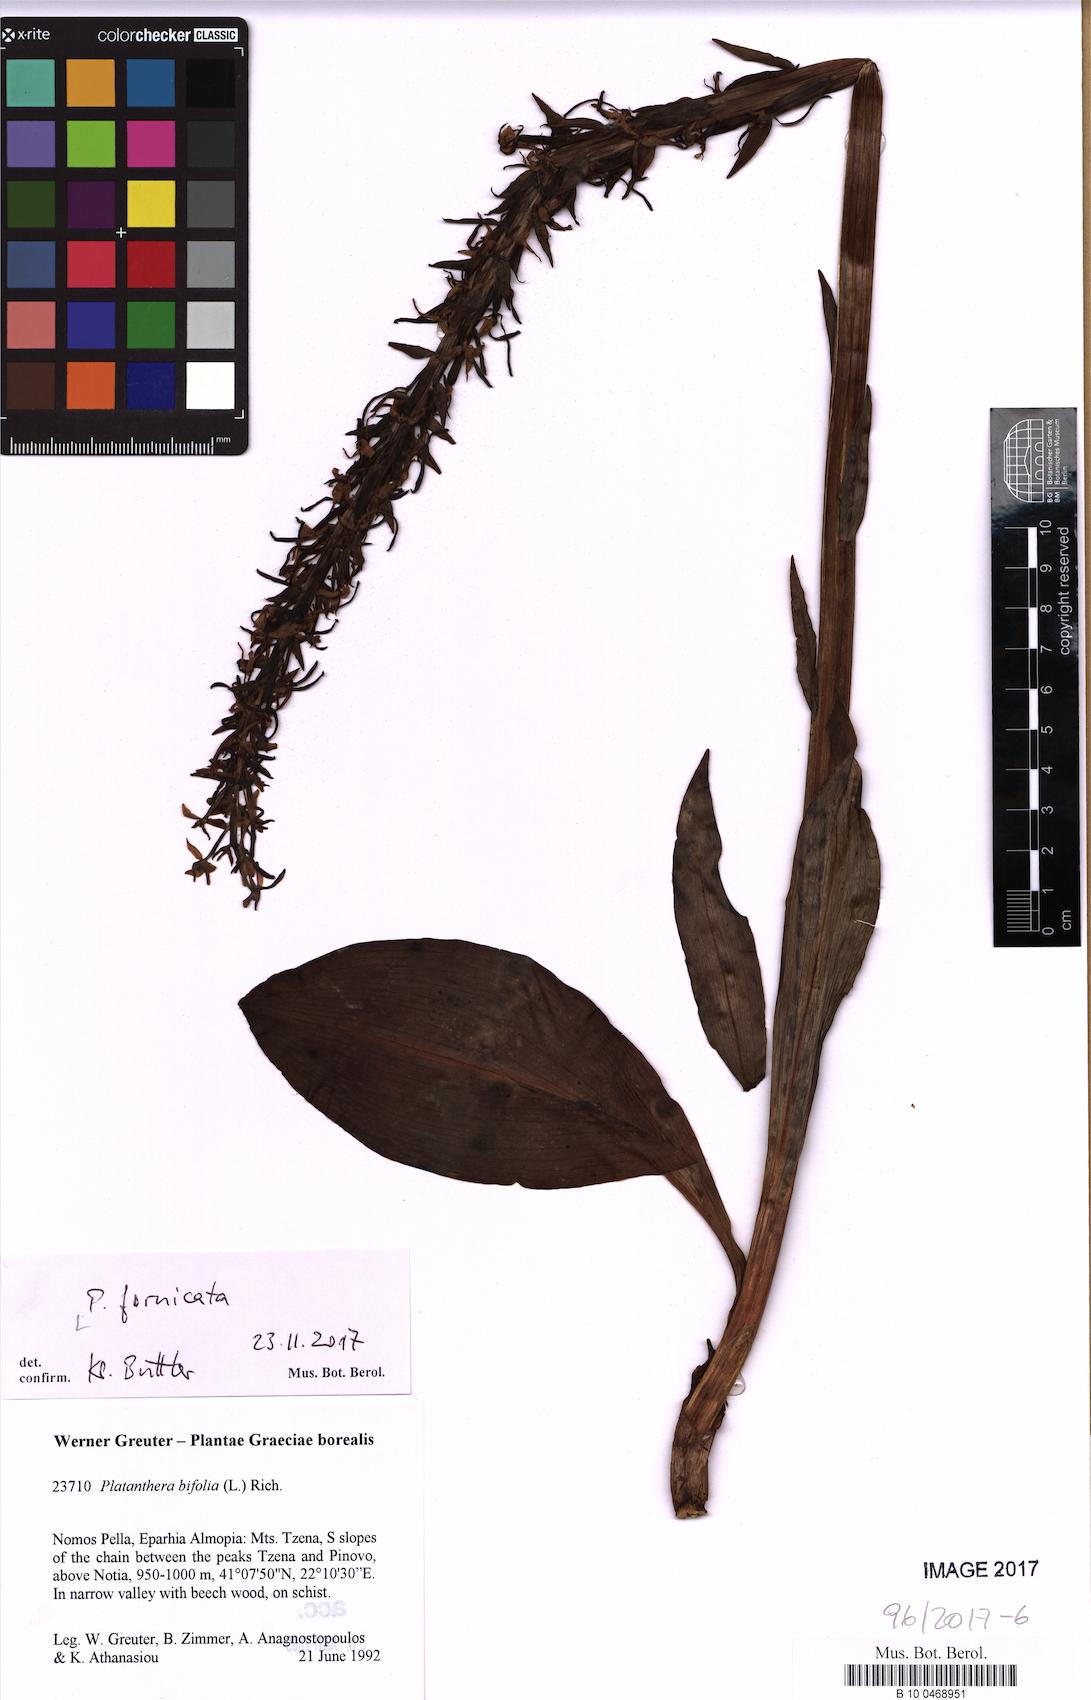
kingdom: Plantae
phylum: Tracheophyta
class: Liliopsida
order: Asparagales
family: Orchidaceae
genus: Platanthera
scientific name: Platanthera bifolia
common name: Lesser butterfly-orchid
